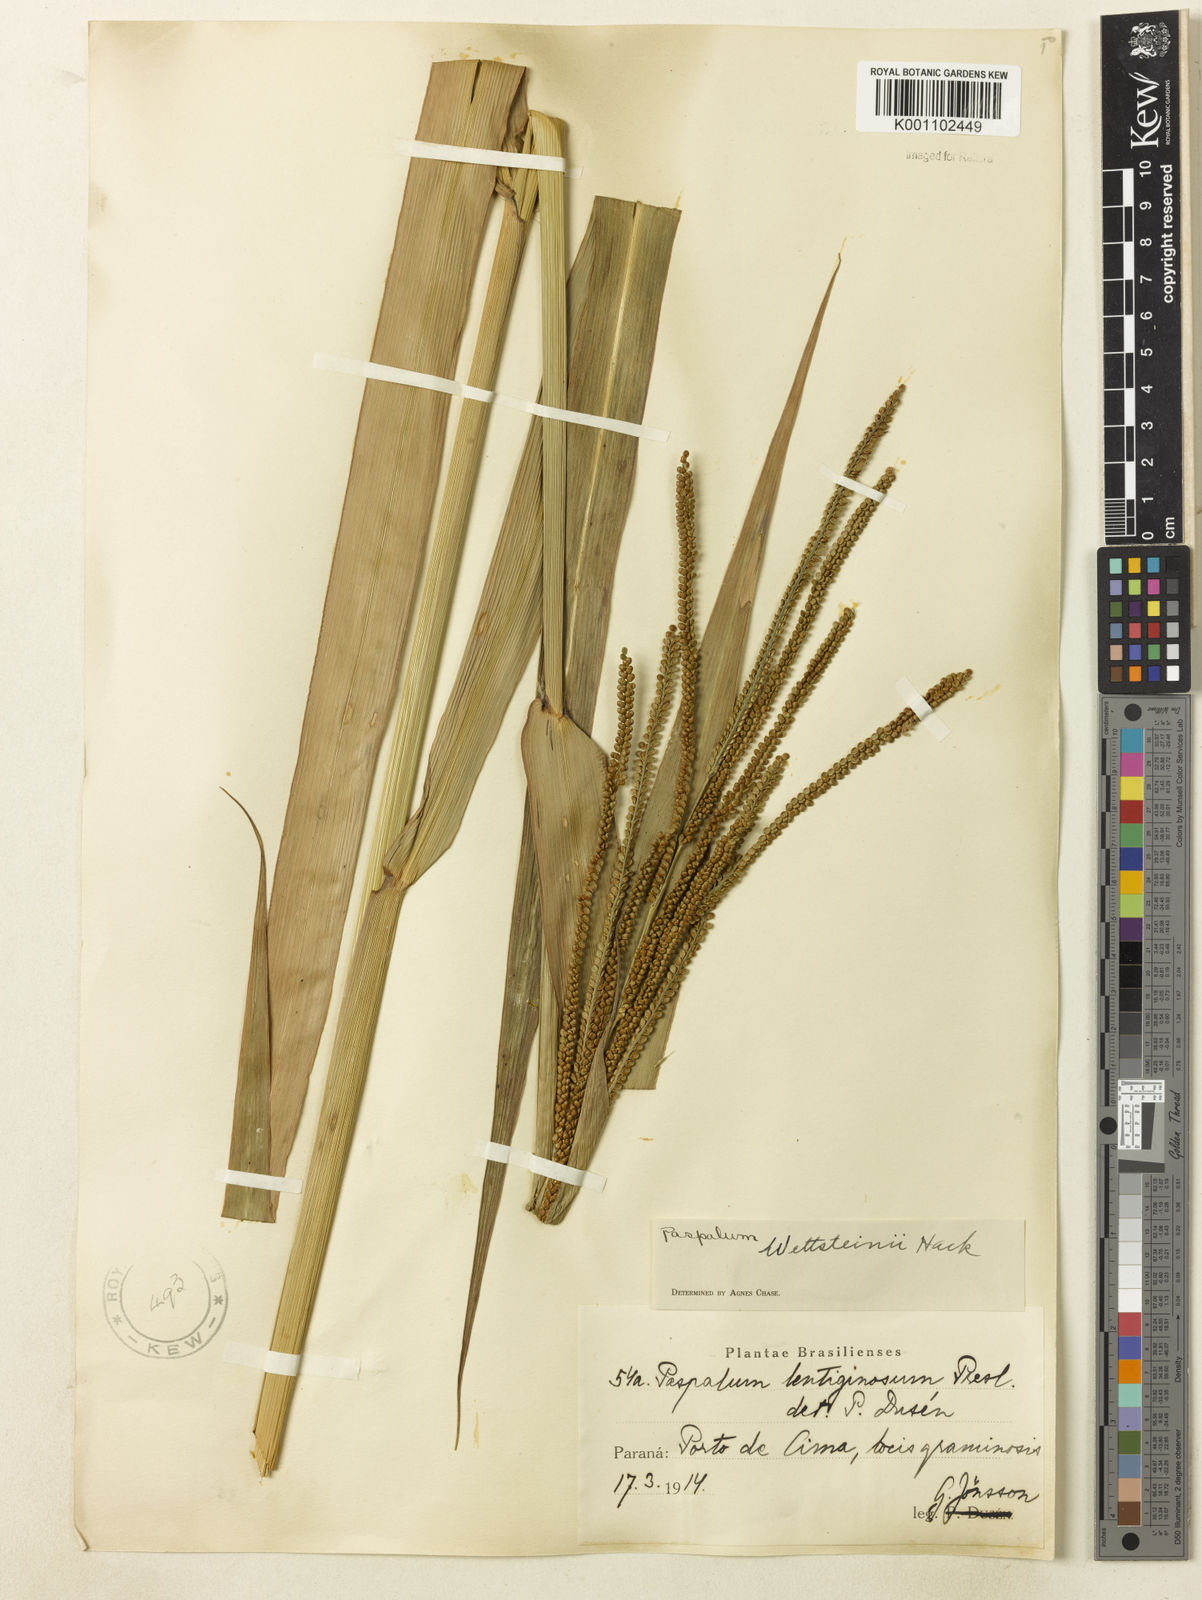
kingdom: Plantae
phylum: Tracheophyta
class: Liliopsida
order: Poales
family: Poaceae
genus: Paspalum
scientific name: Paspalum virgatum
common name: Talquezal
